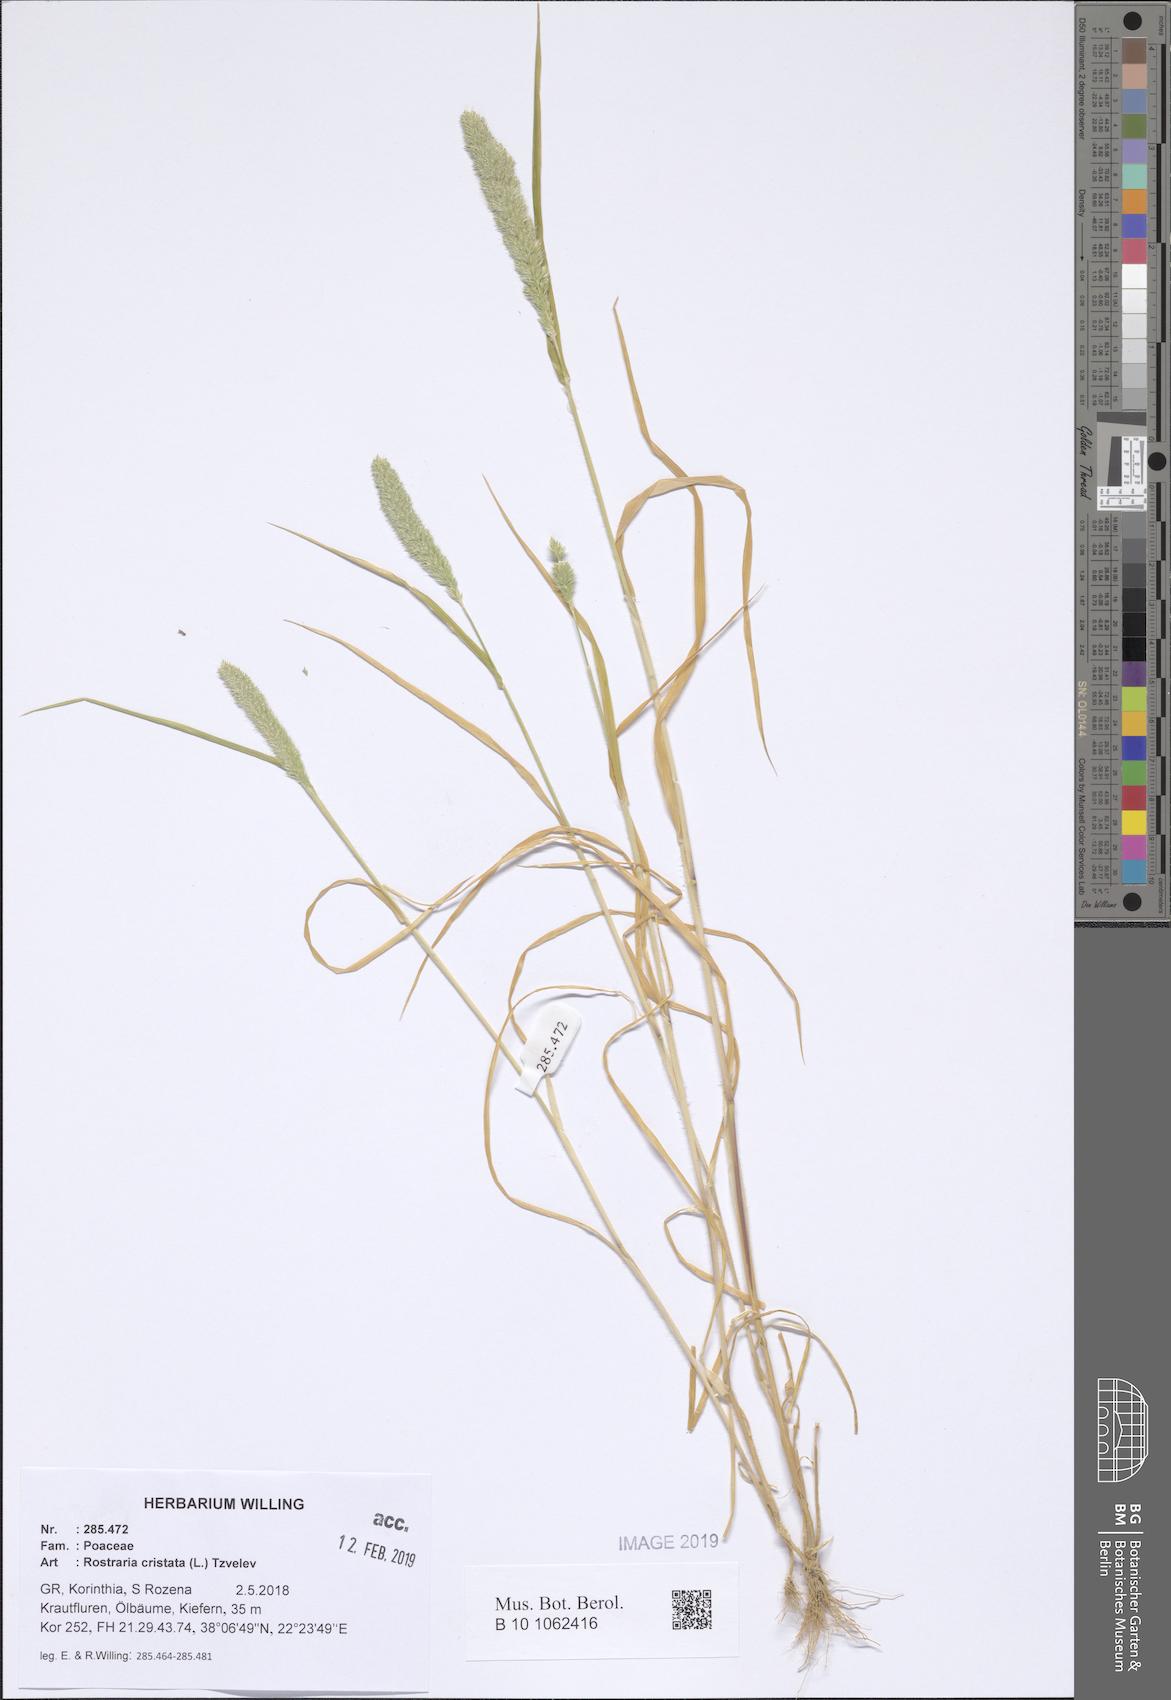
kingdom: Plantae
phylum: Tracheophyta
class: Liliopsida
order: Poales
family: Poaceae
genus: Rostraria
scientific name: Rostraria cristata
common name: Mediterranean hair-grass
